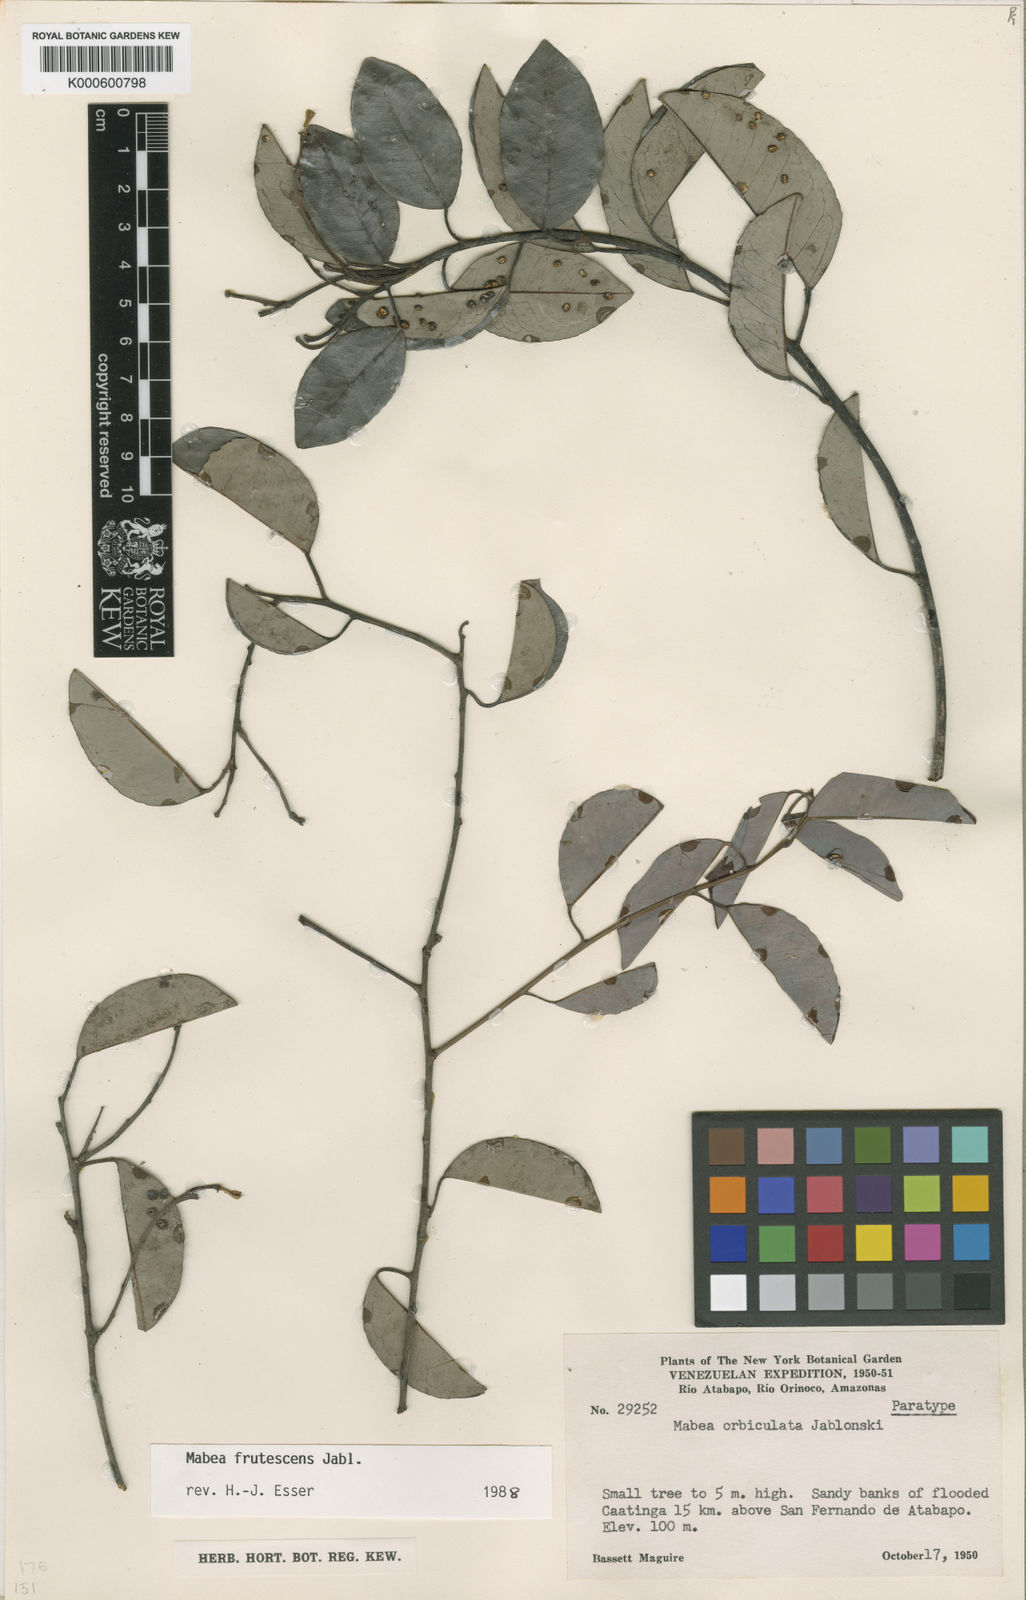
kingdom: Plantae
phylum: Tracheophyta
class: Magnoliopsida
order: Malpighiales
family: Euphorbiaceae
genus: Mabea
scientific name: Mabea frutescens
